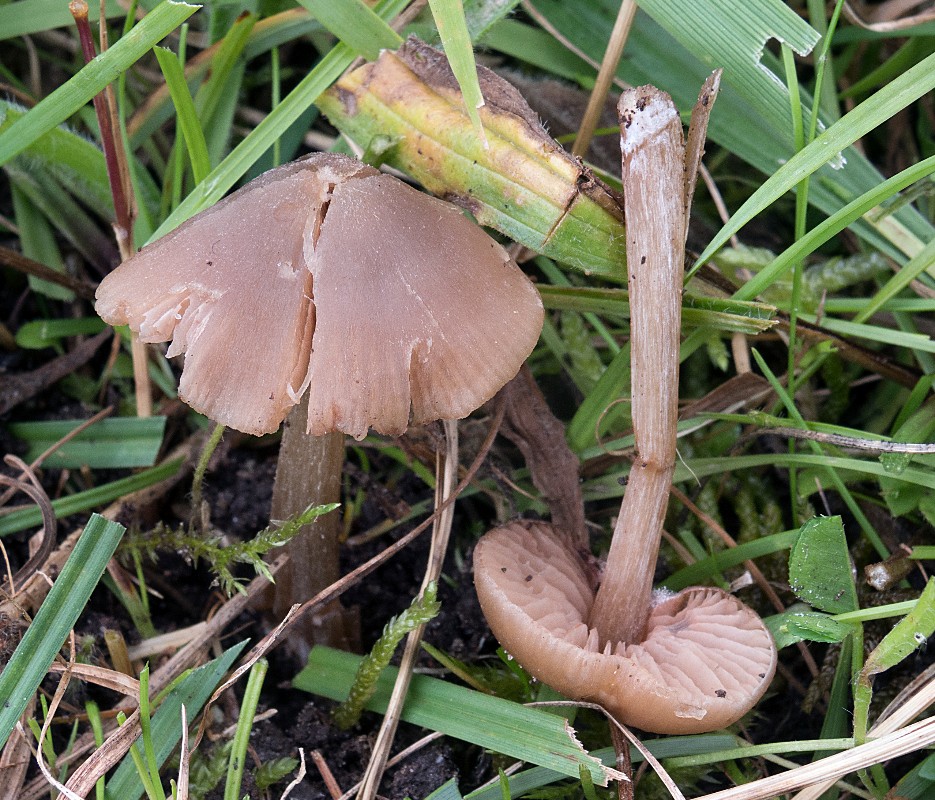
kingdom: Fungi
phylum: Basidiomycota
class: Agaricomycetes
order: Agaricales
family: Entolomataceae
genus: Entoloma
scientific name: Entoloma ameides
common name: sødlig rødblad
